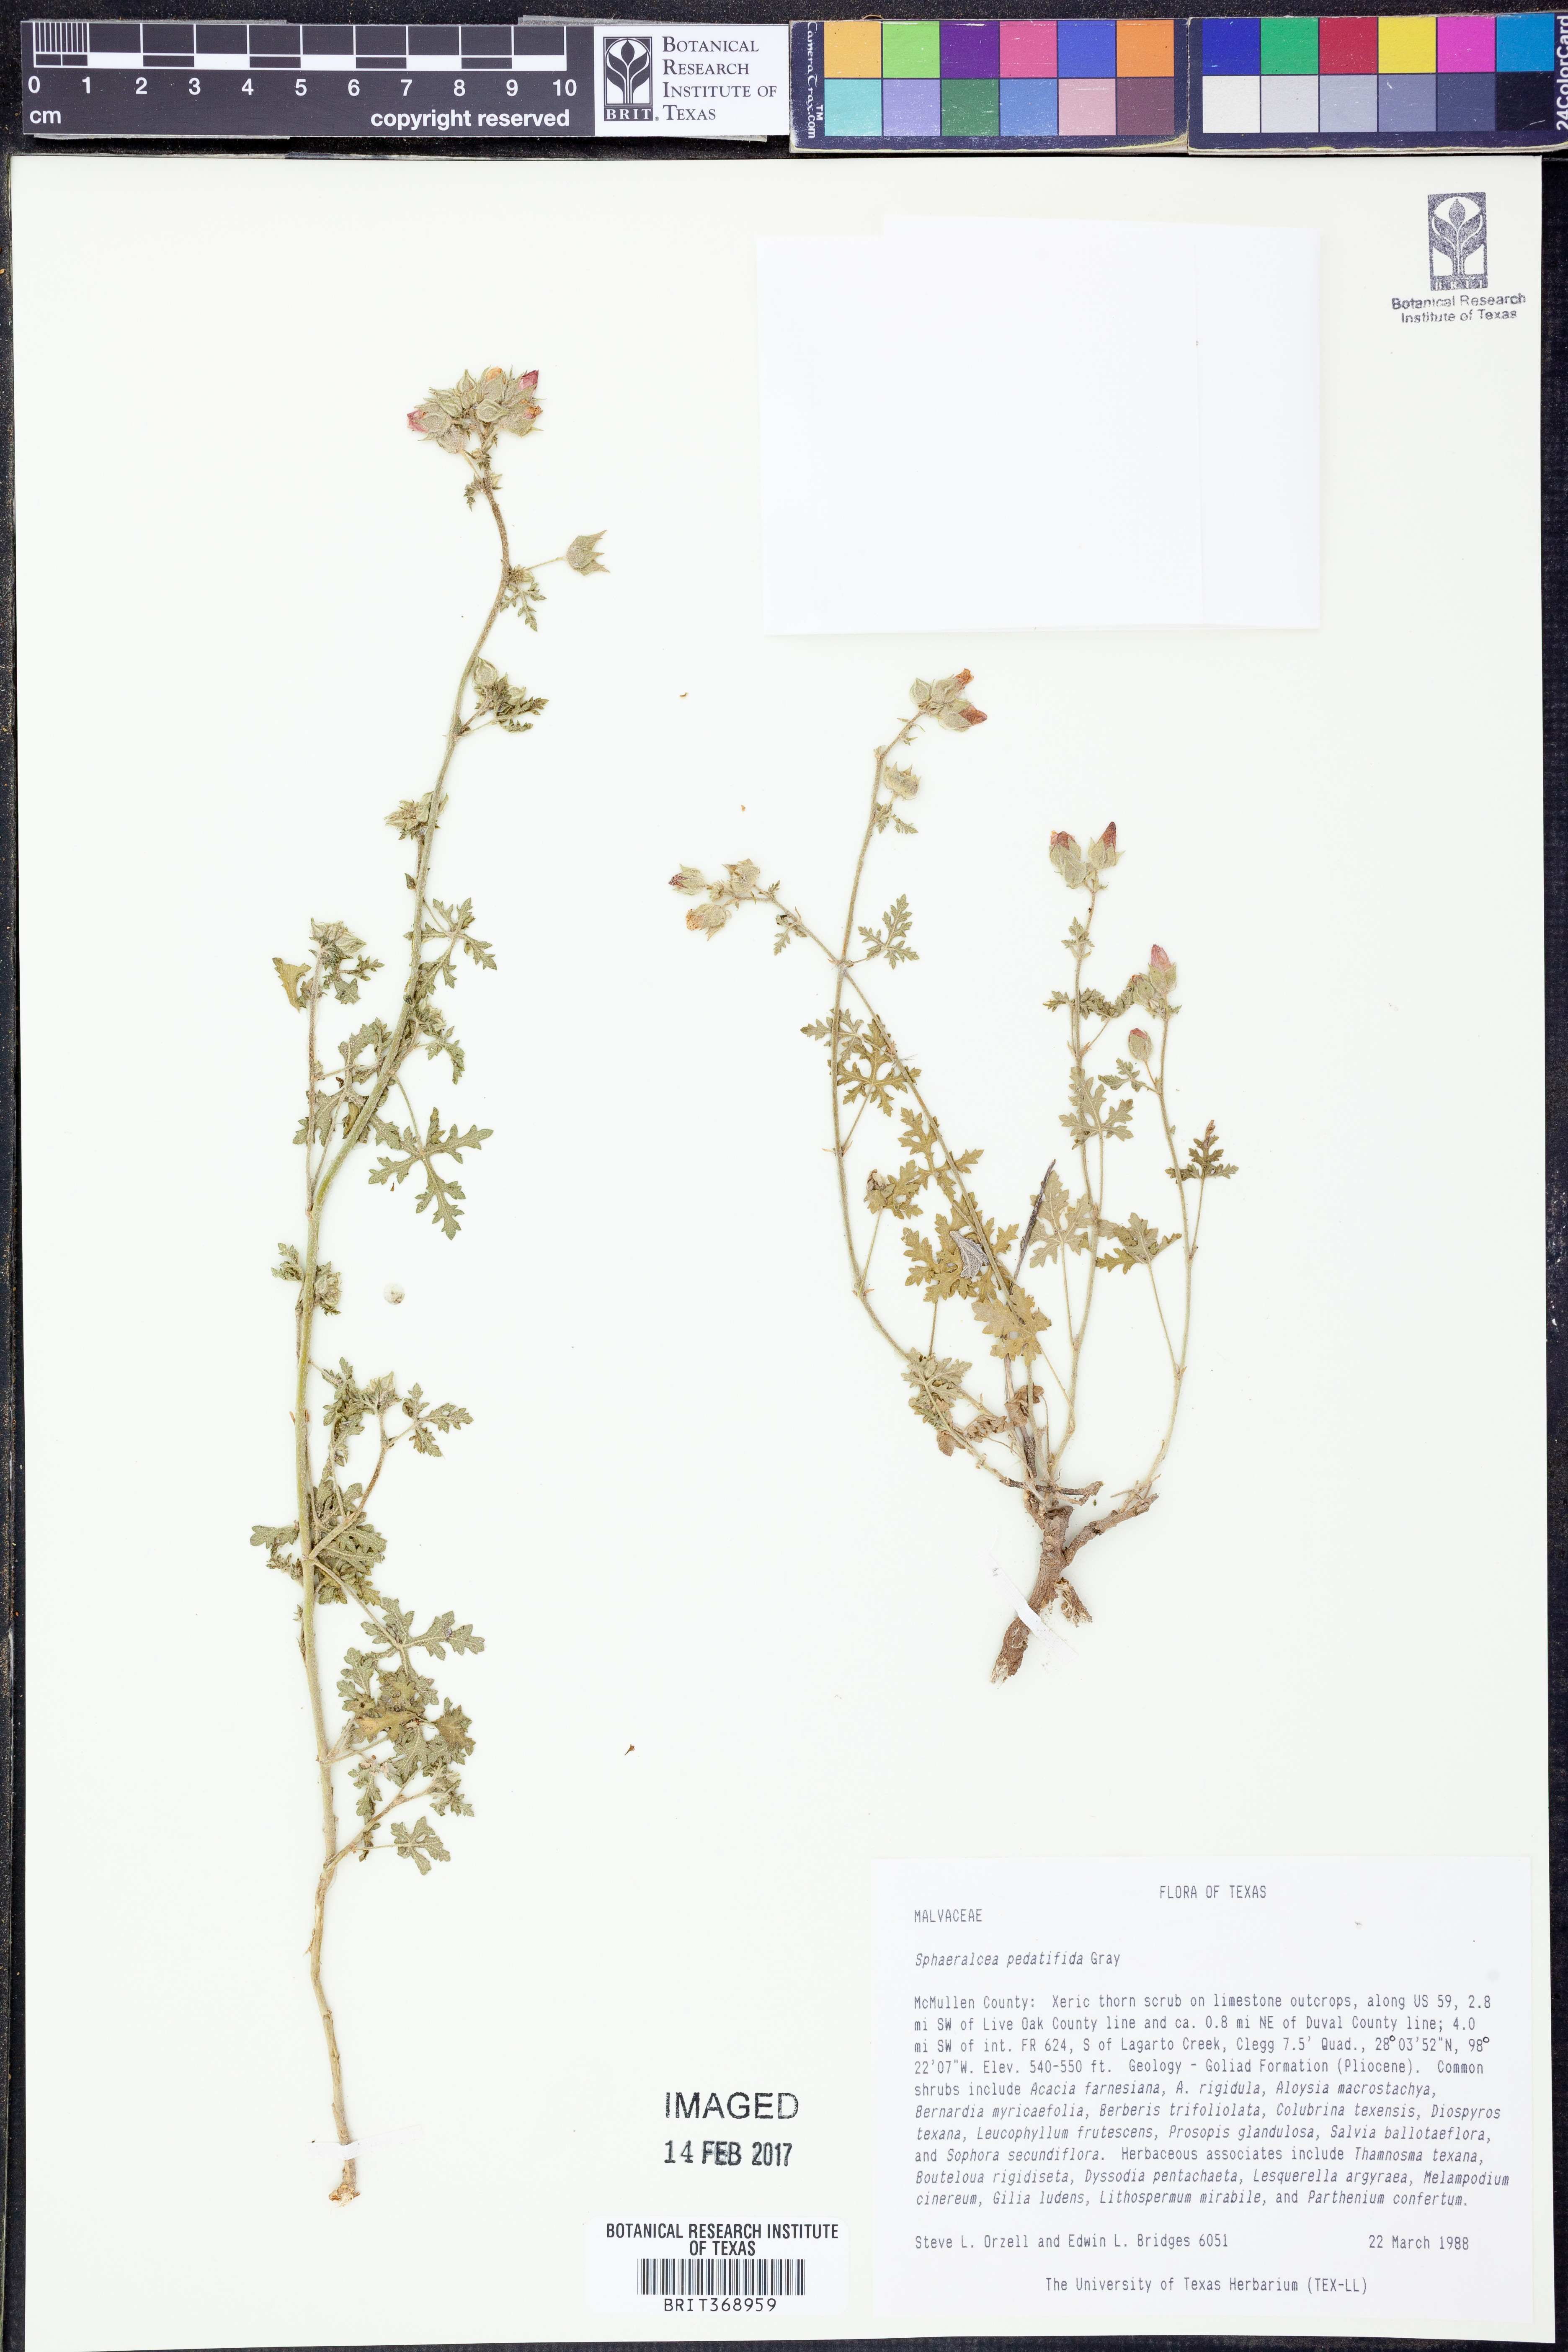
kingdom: Plantae
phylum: Tracheophyta
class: Magnoliopsida
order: Malvales
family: Malvaceae
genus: Sphaeralcea
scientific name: Sphaeralcea pedatifida
